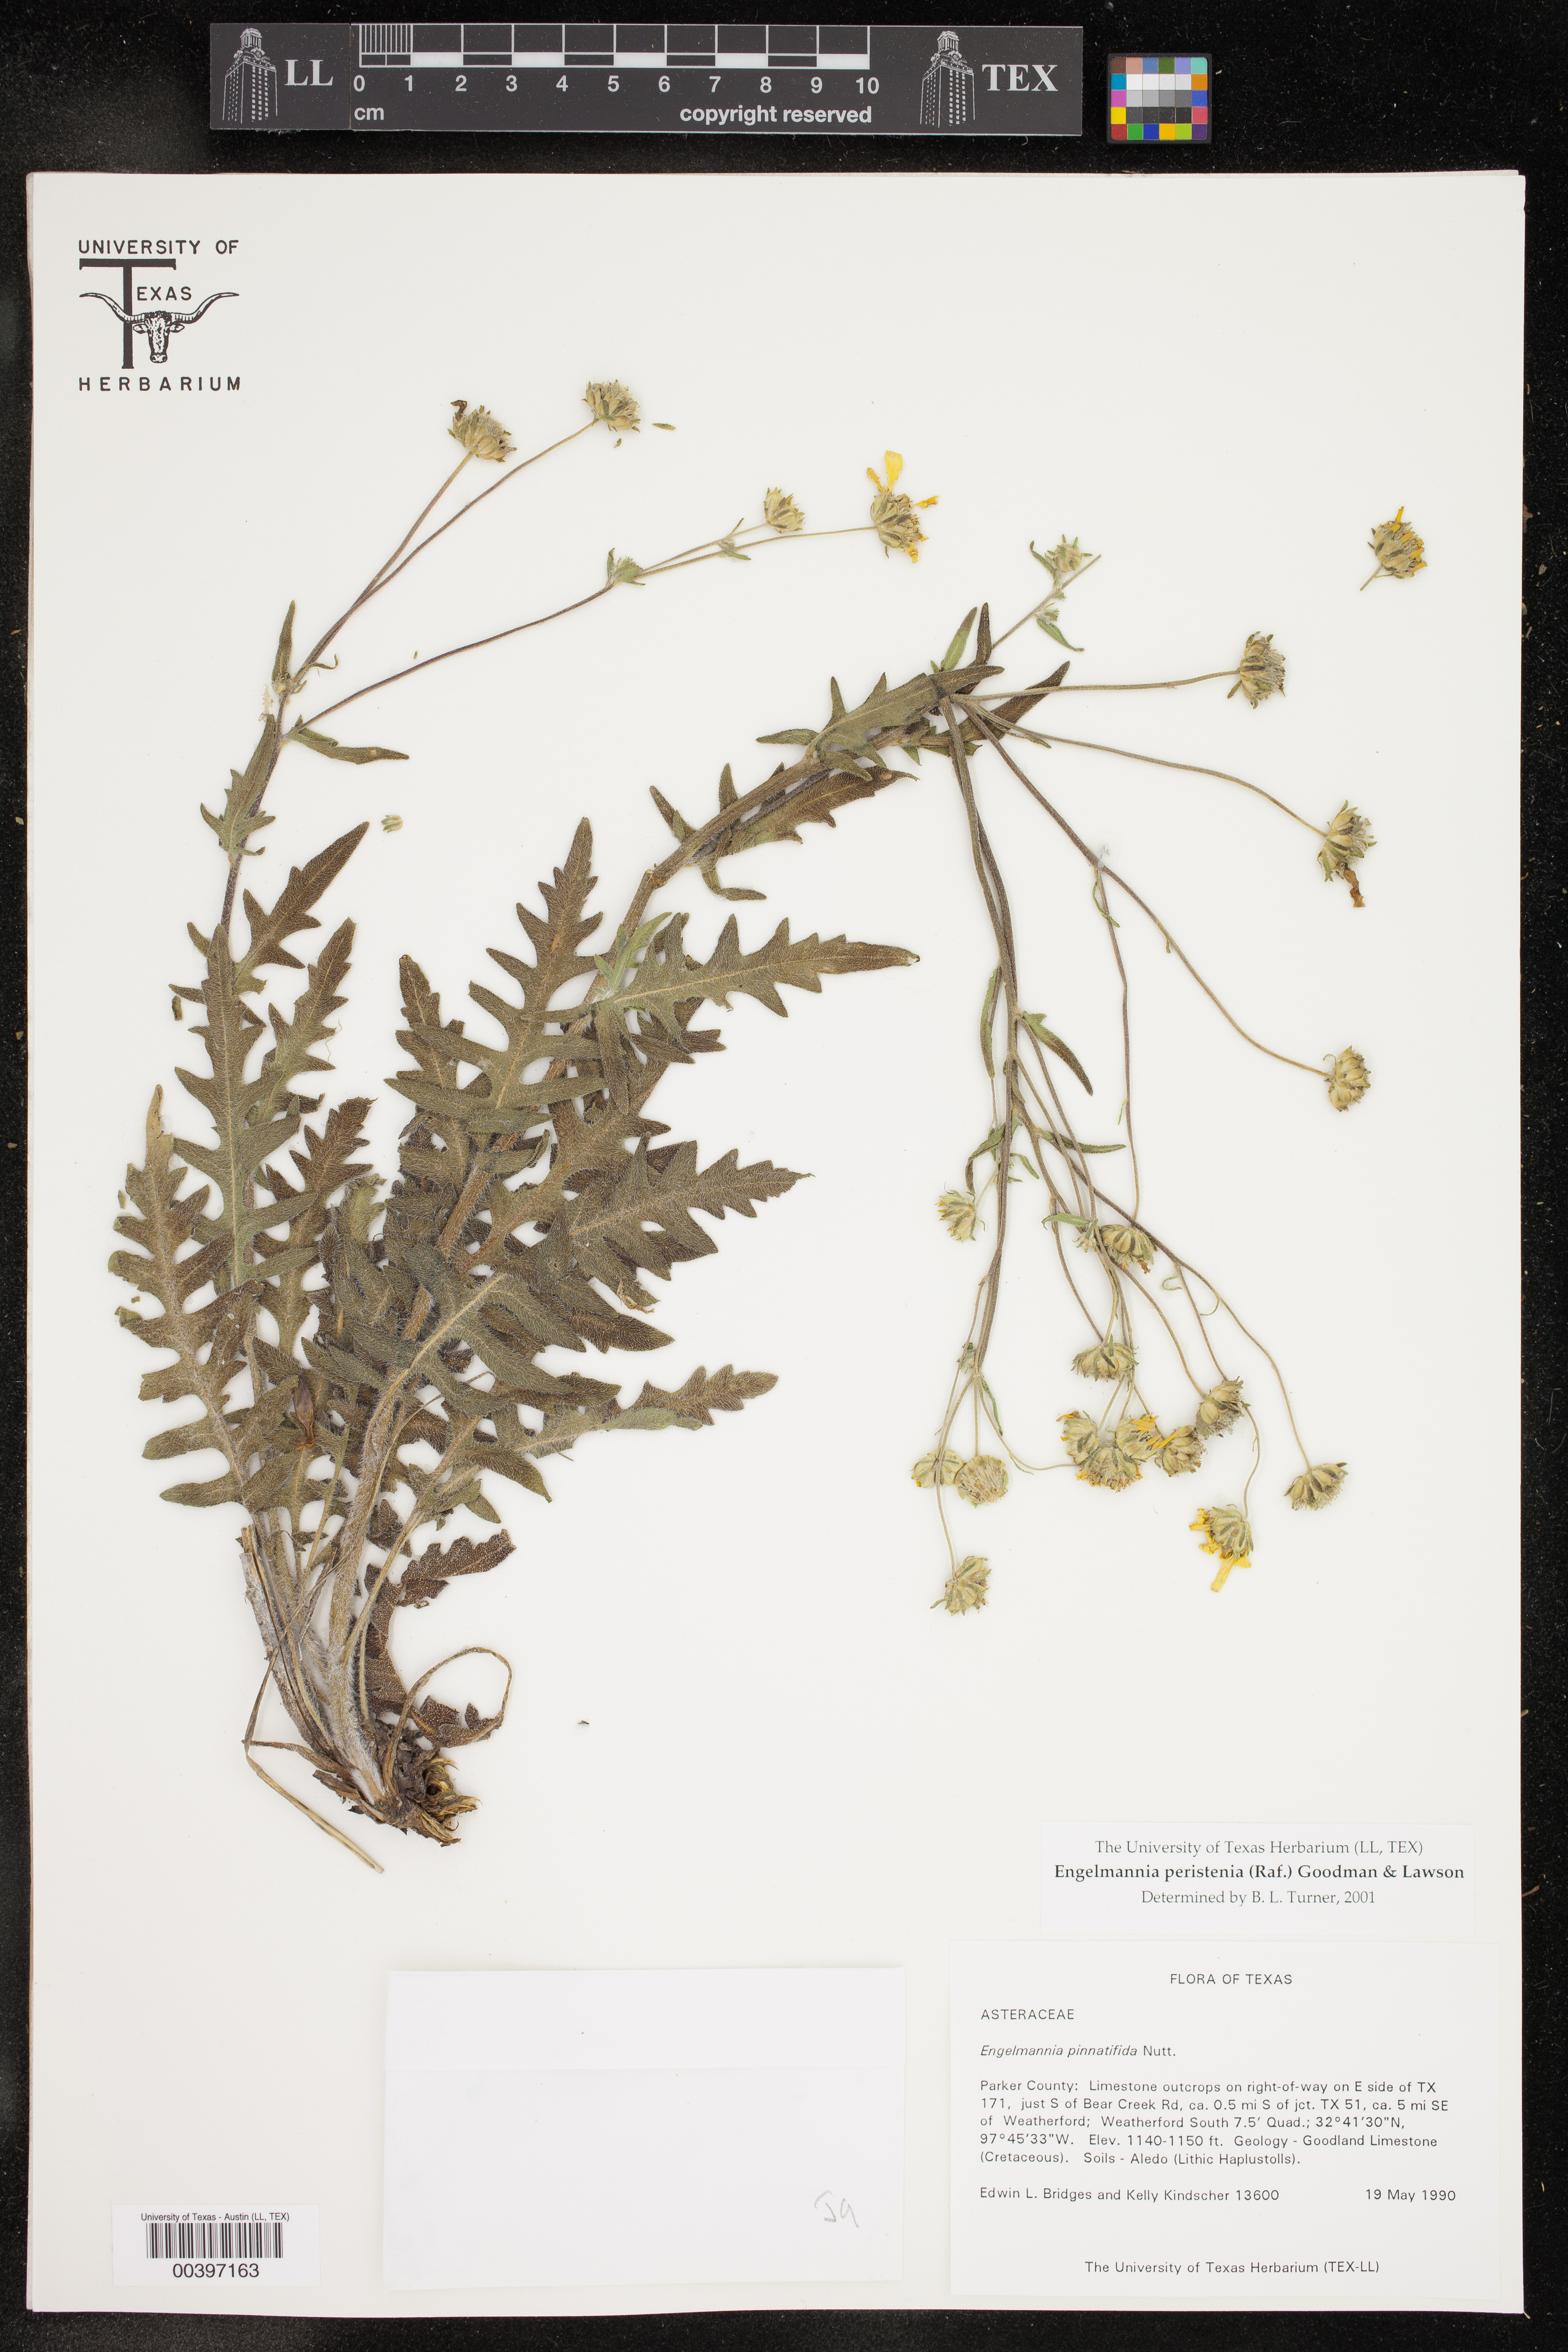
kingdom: Plantae
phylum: Tracheophyta
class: Magnoliopsida
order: Asterales
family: Asteraceae
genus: Engelmannia
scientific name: Engelmannia peristenia
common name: Engelmann's daisy
